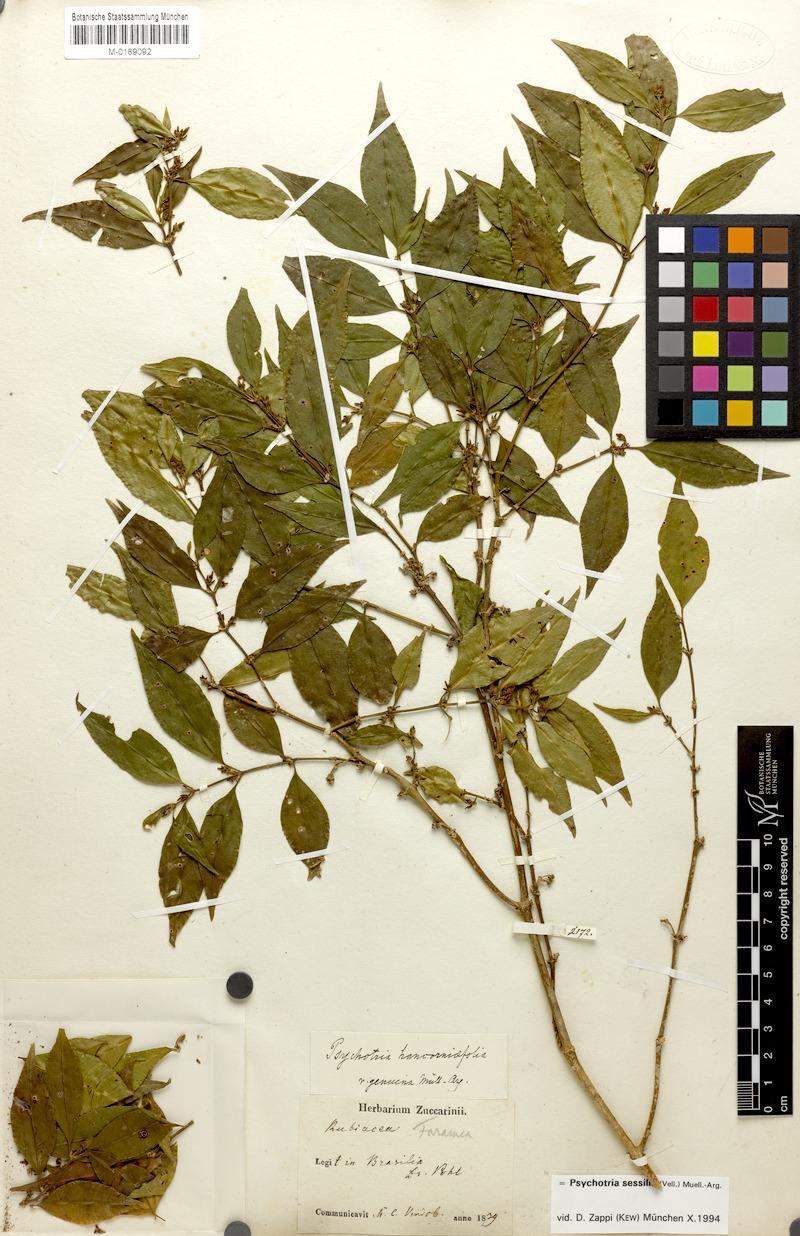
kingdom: Plantae
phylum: Tracheophyta
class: Magnoliopsida
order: Gentianales
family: Rubiaceae
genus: Palicourea
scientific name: Palicourea sessilis
